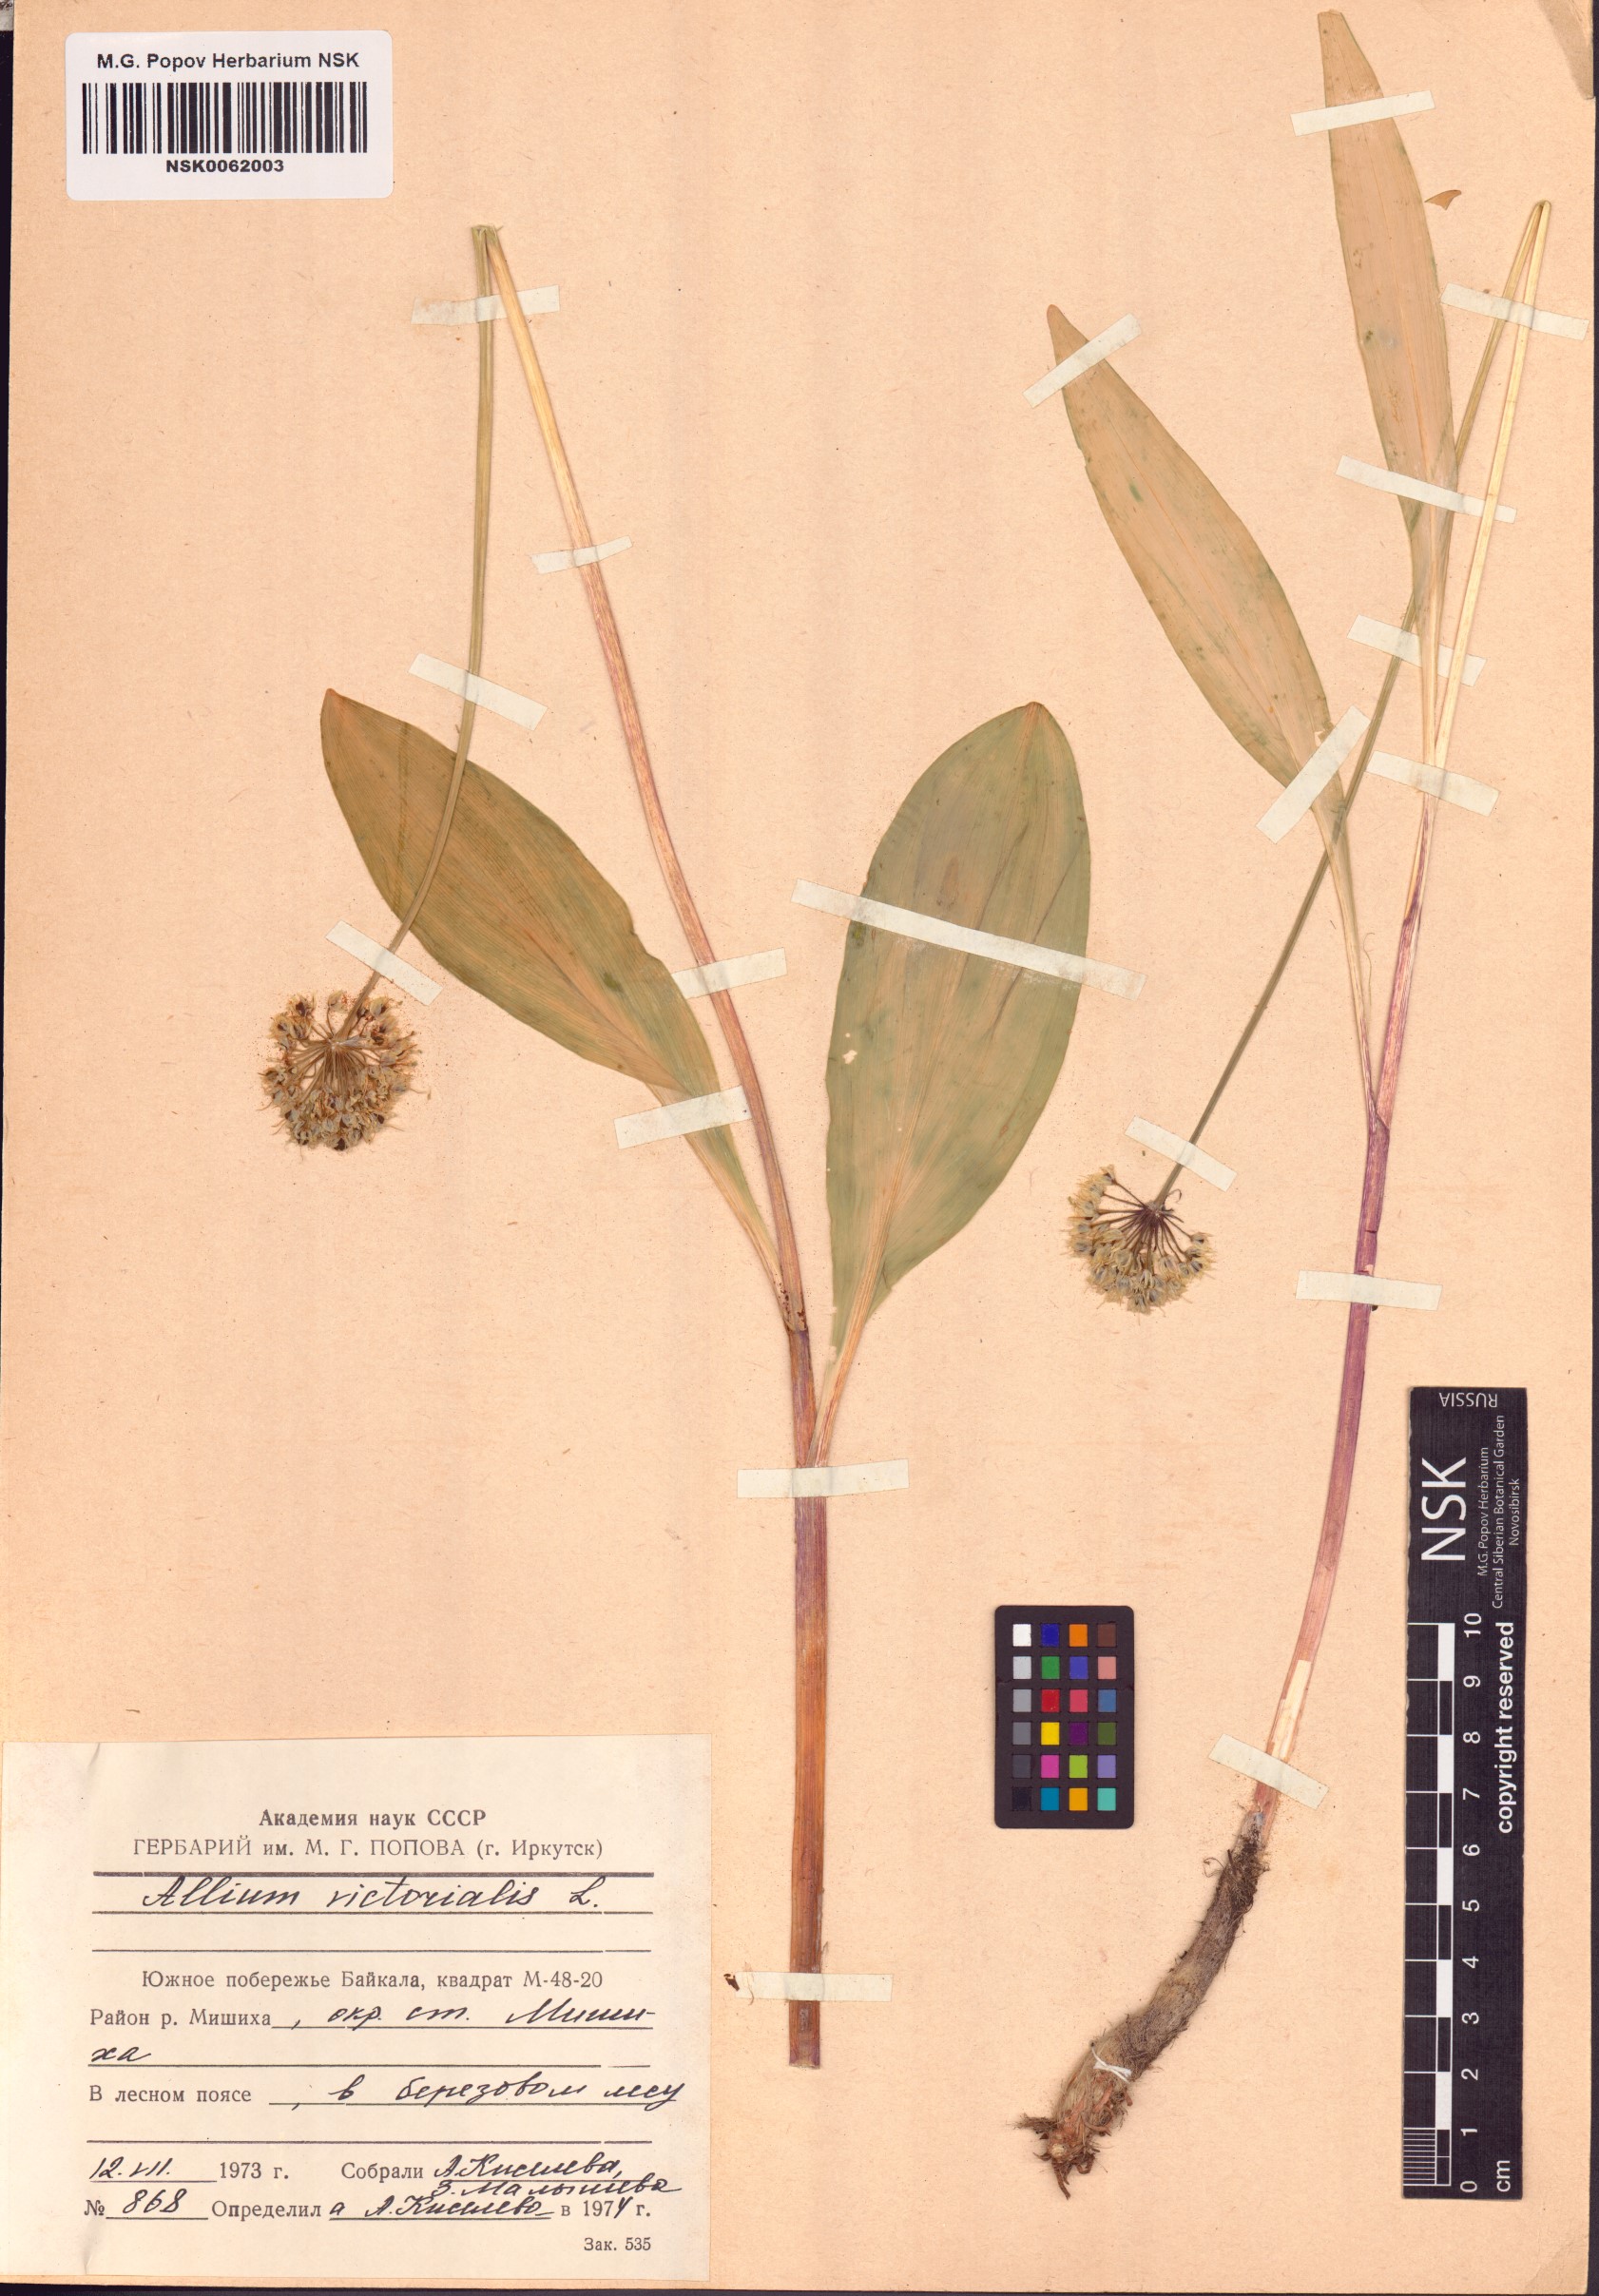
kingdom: Plantae
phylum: Tracheophyta
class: Liliopsida
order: Asparagales
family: Amaryllidaceae
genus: Allium
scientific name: Allium victorialis
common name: Alpine leek
